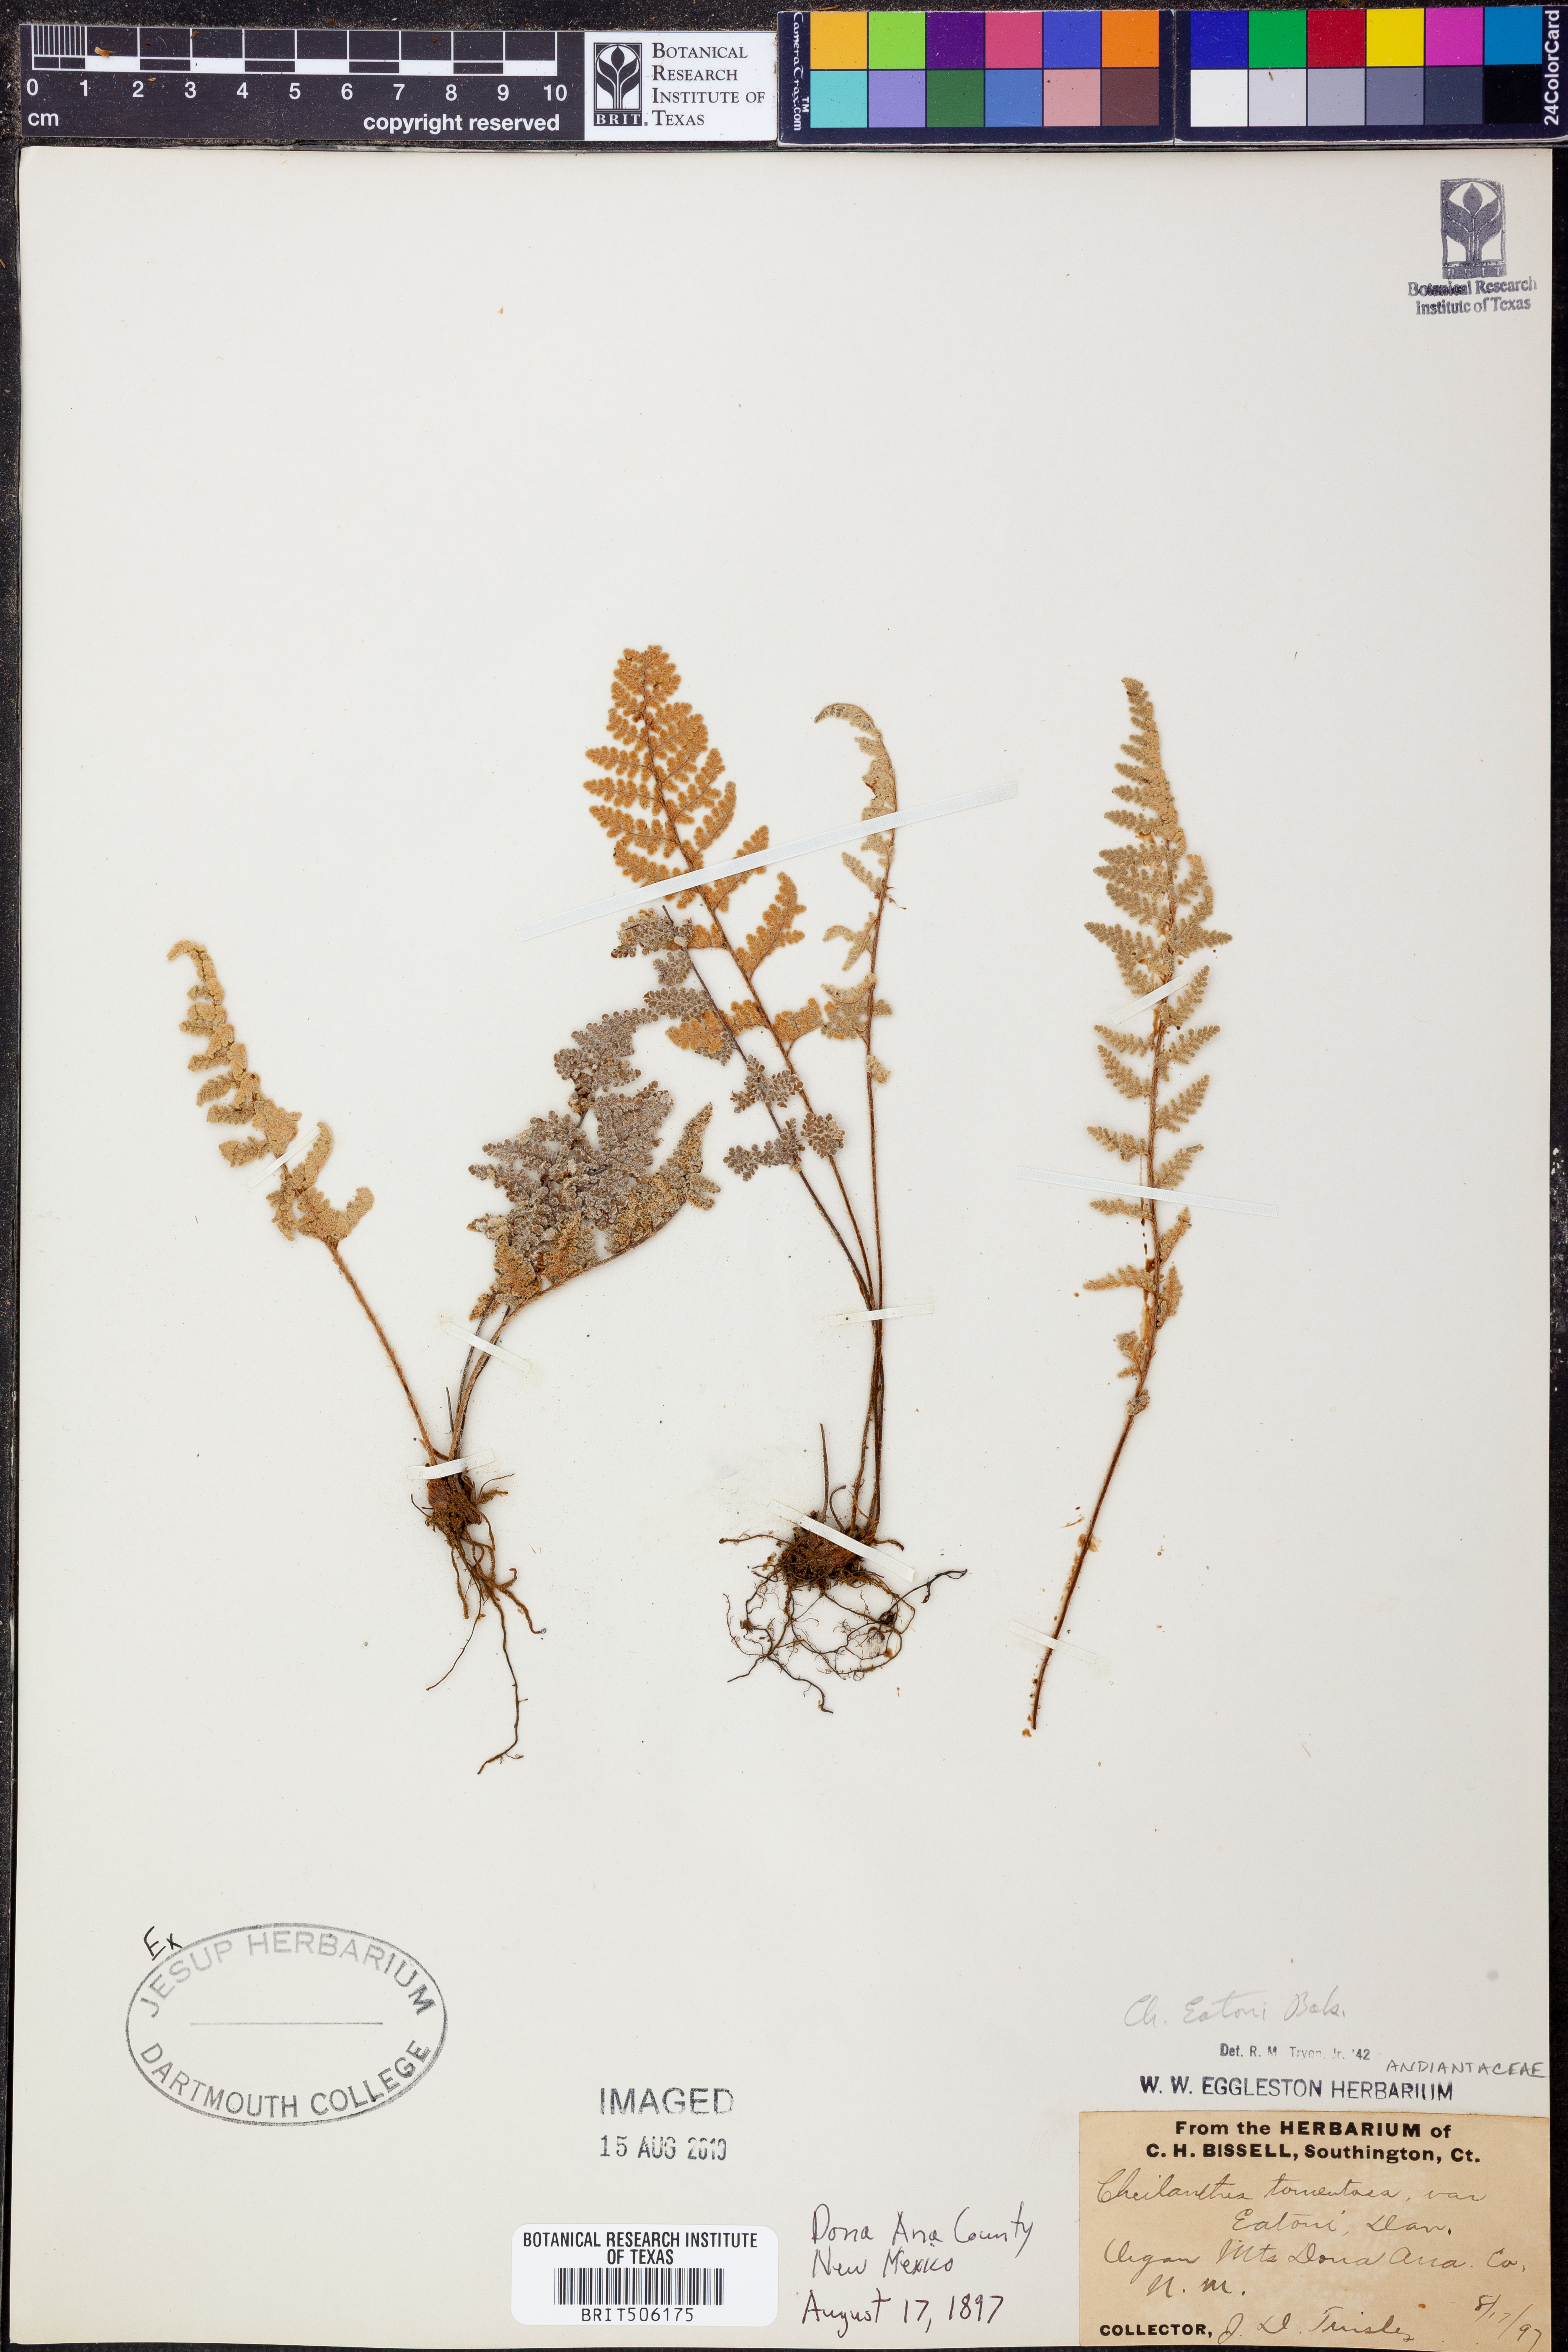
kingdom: Plantae
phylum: Tracheophyta
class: Polypodiopsida
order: Polypodiales
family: Pteridaceae
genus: Myriopteris
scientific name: Myriopteris rufa
